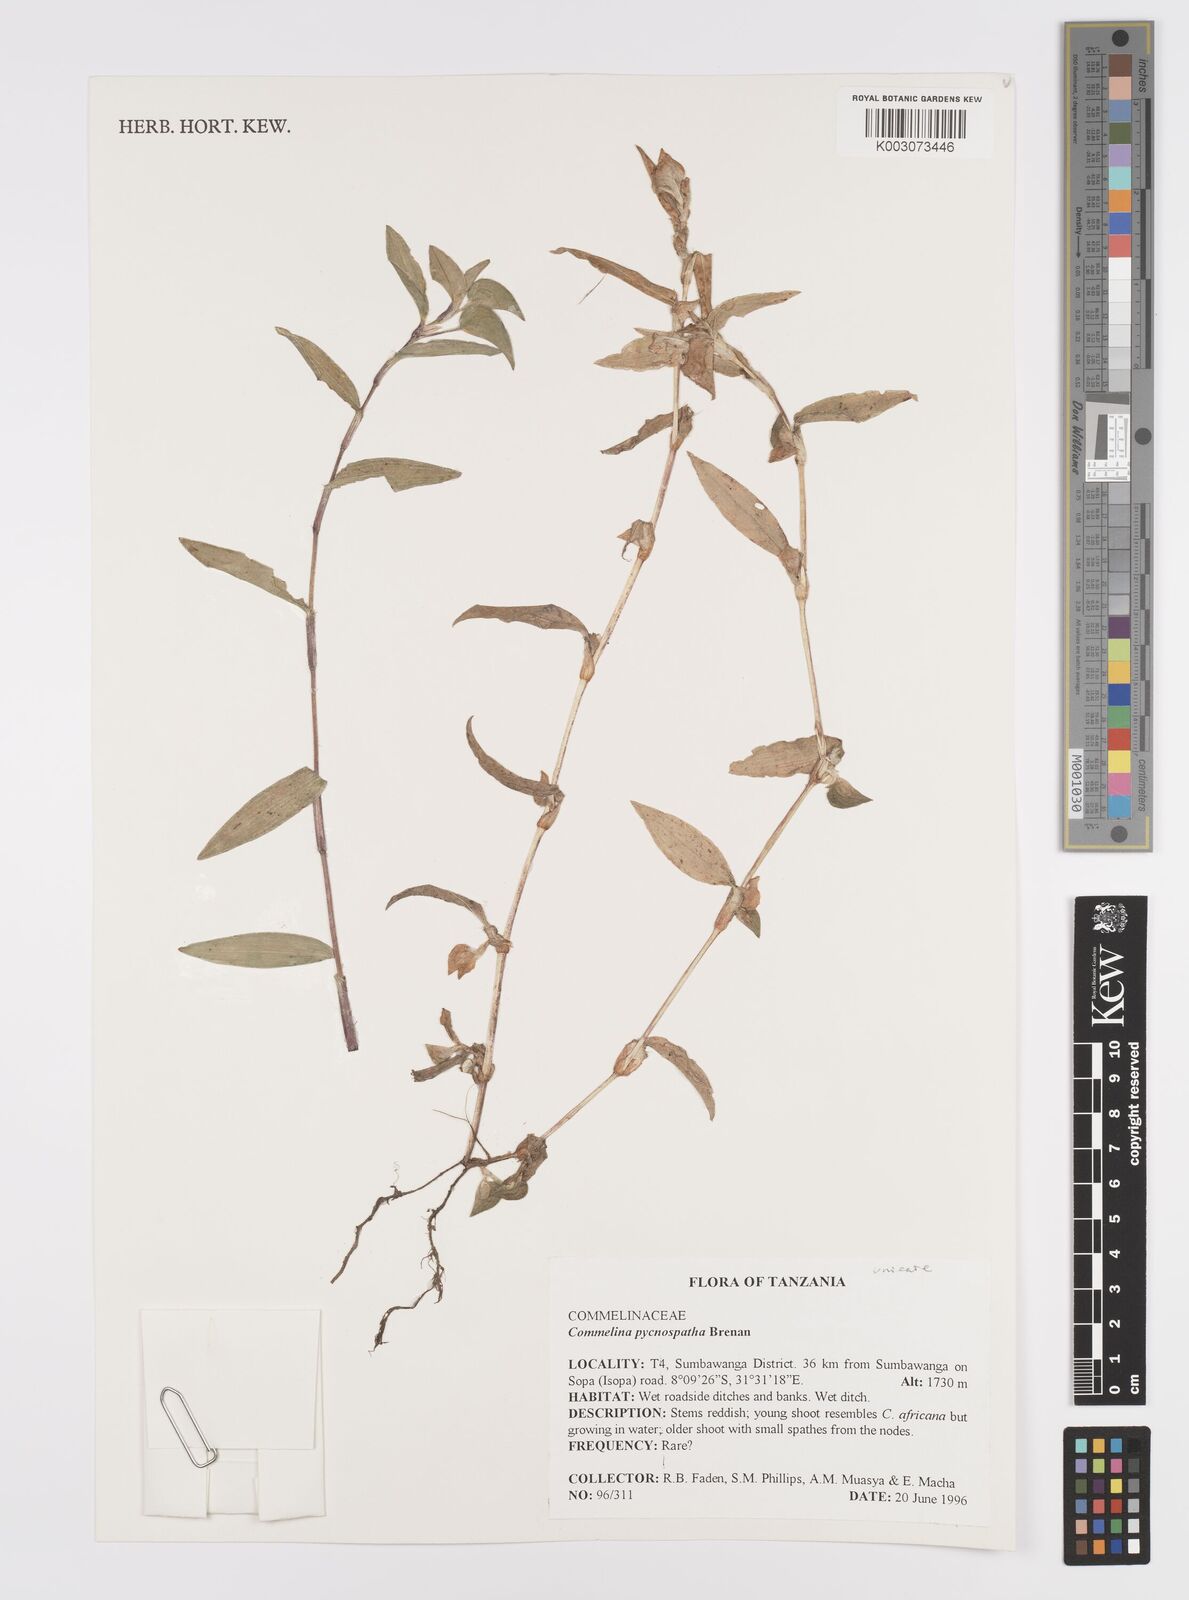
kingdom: Plantae
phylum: Tracheophyta
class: Liliopsida
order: Commelinales
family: Commelinaceae
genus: Commelina
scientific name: Commelina pycnospatha
